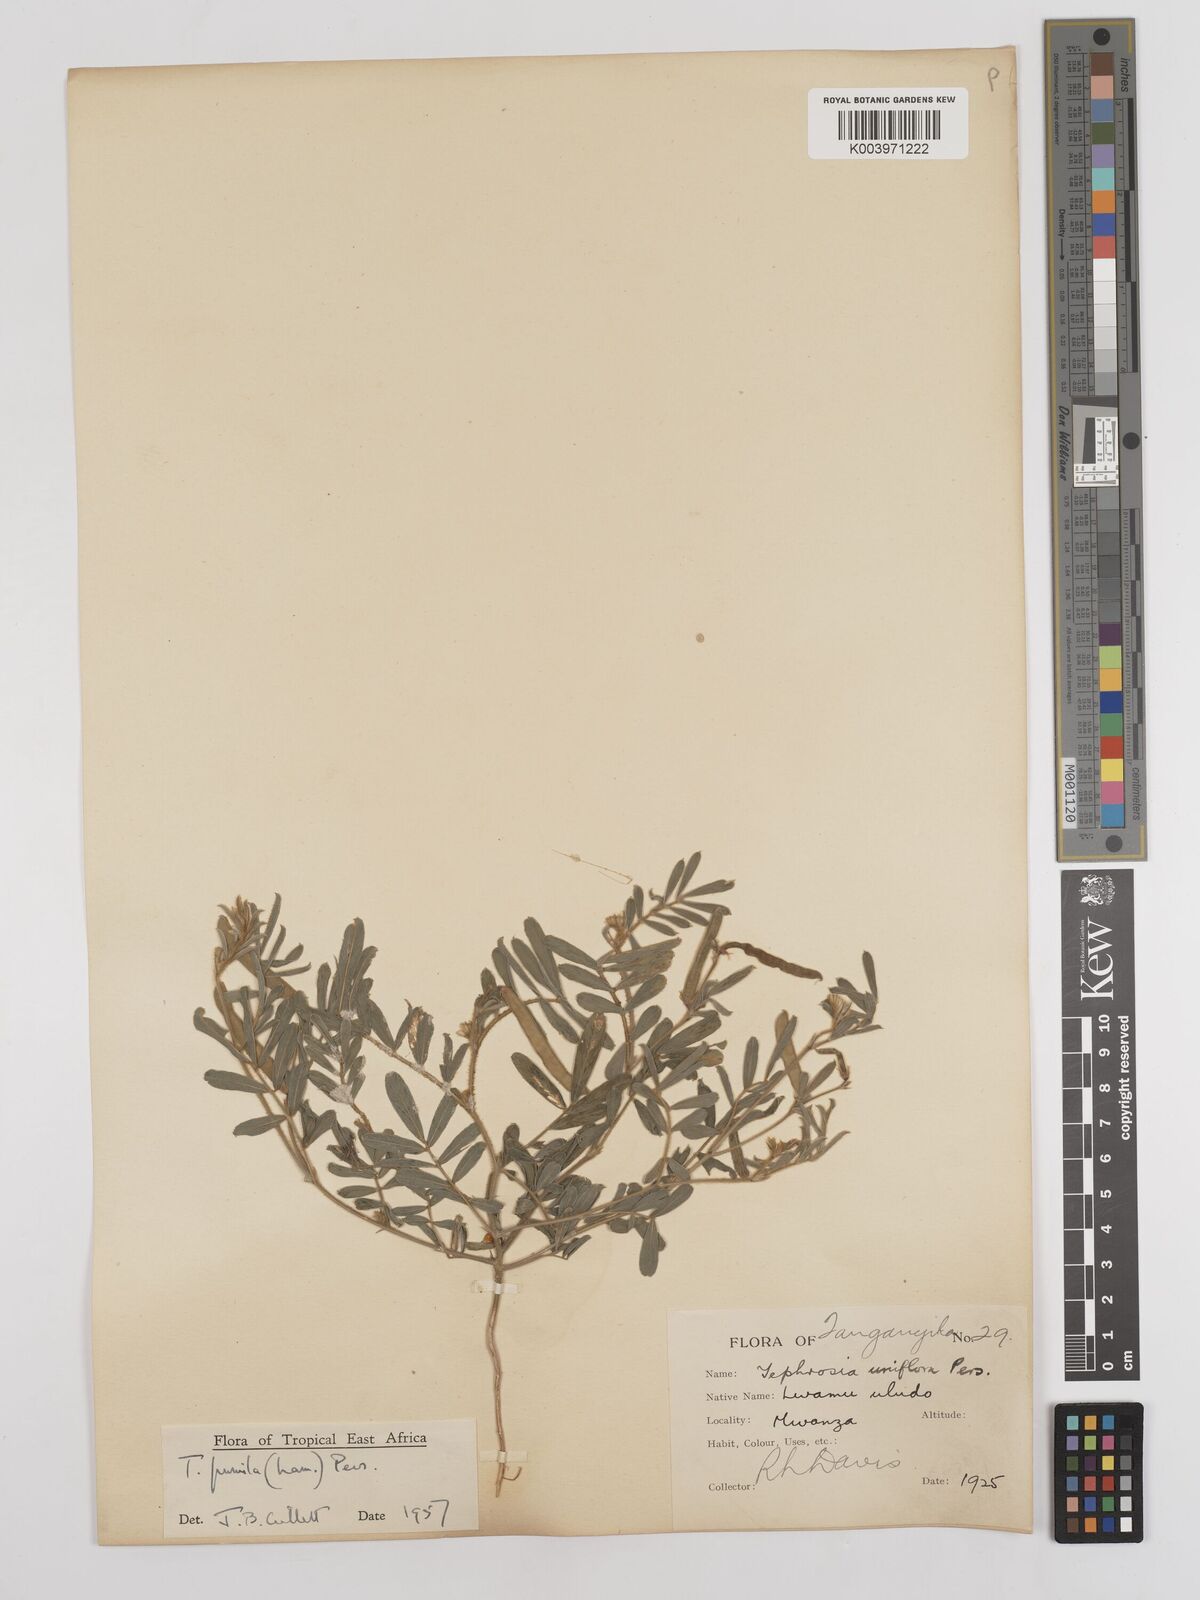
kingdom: Plantae
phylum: Tracheophyta
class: Magnoliopsida
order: Fabales
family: Fabaceae
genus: Tephrosia
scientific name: Tephrosia pumila
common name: Indigo sauvage
